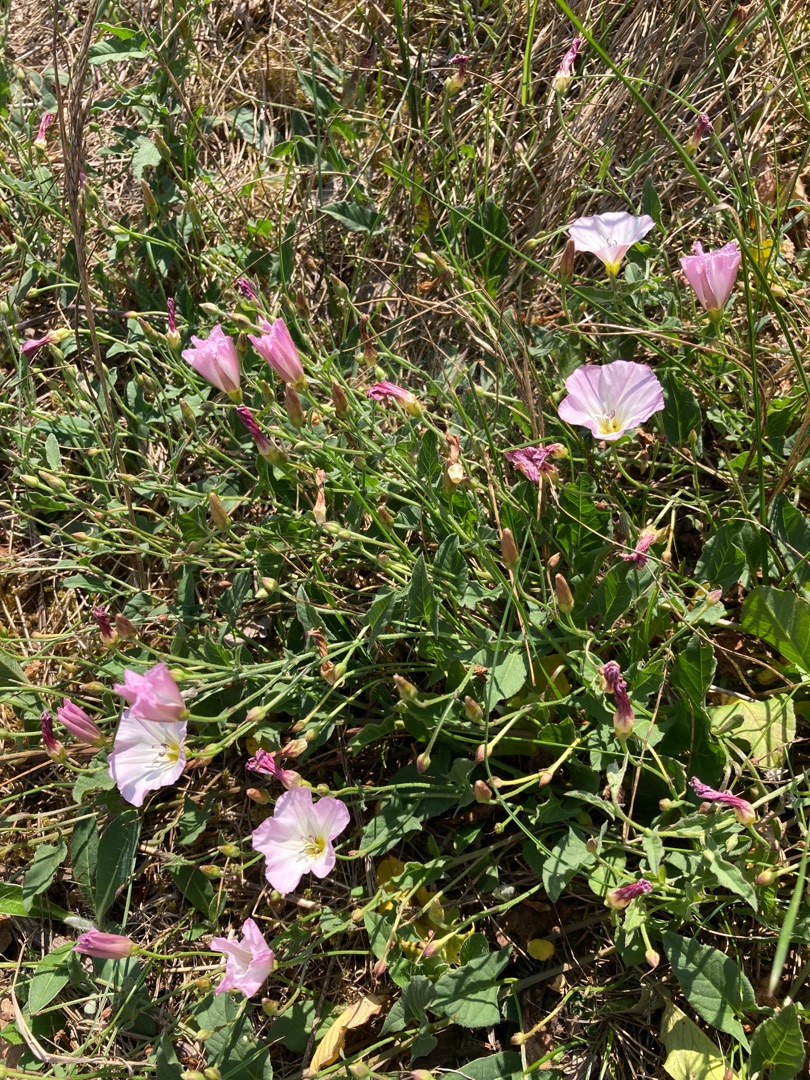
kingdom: Plantae
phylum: Tracheophyta
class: Magnoliopsida
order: Solanales
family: Convolvulaceae
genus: Convolvulus
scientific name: Convolvulus arvensis
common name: Ager-snerle
